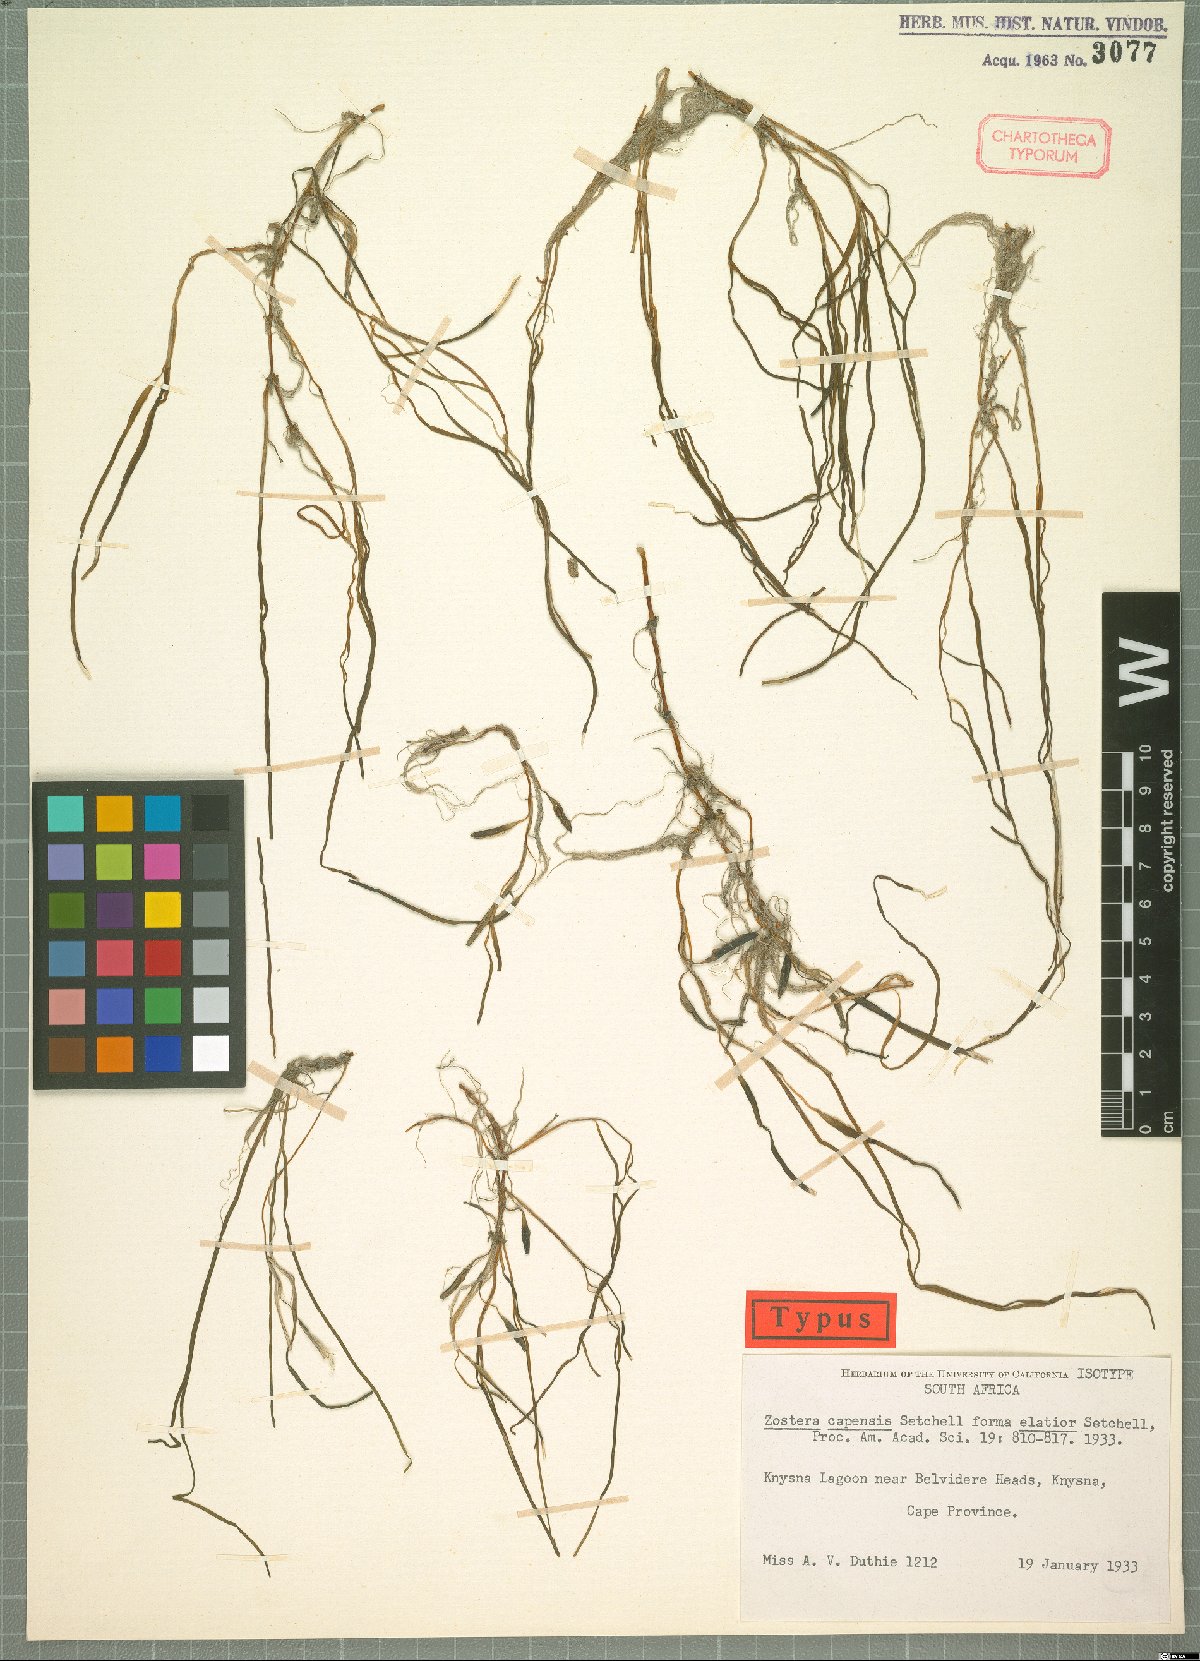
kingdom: Plantae
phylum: Tracheophyta
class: Liliopsida
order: Alismatales
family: Zosteraceae
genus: Zostera
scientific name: Zostera capensis
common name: Species code: zp
